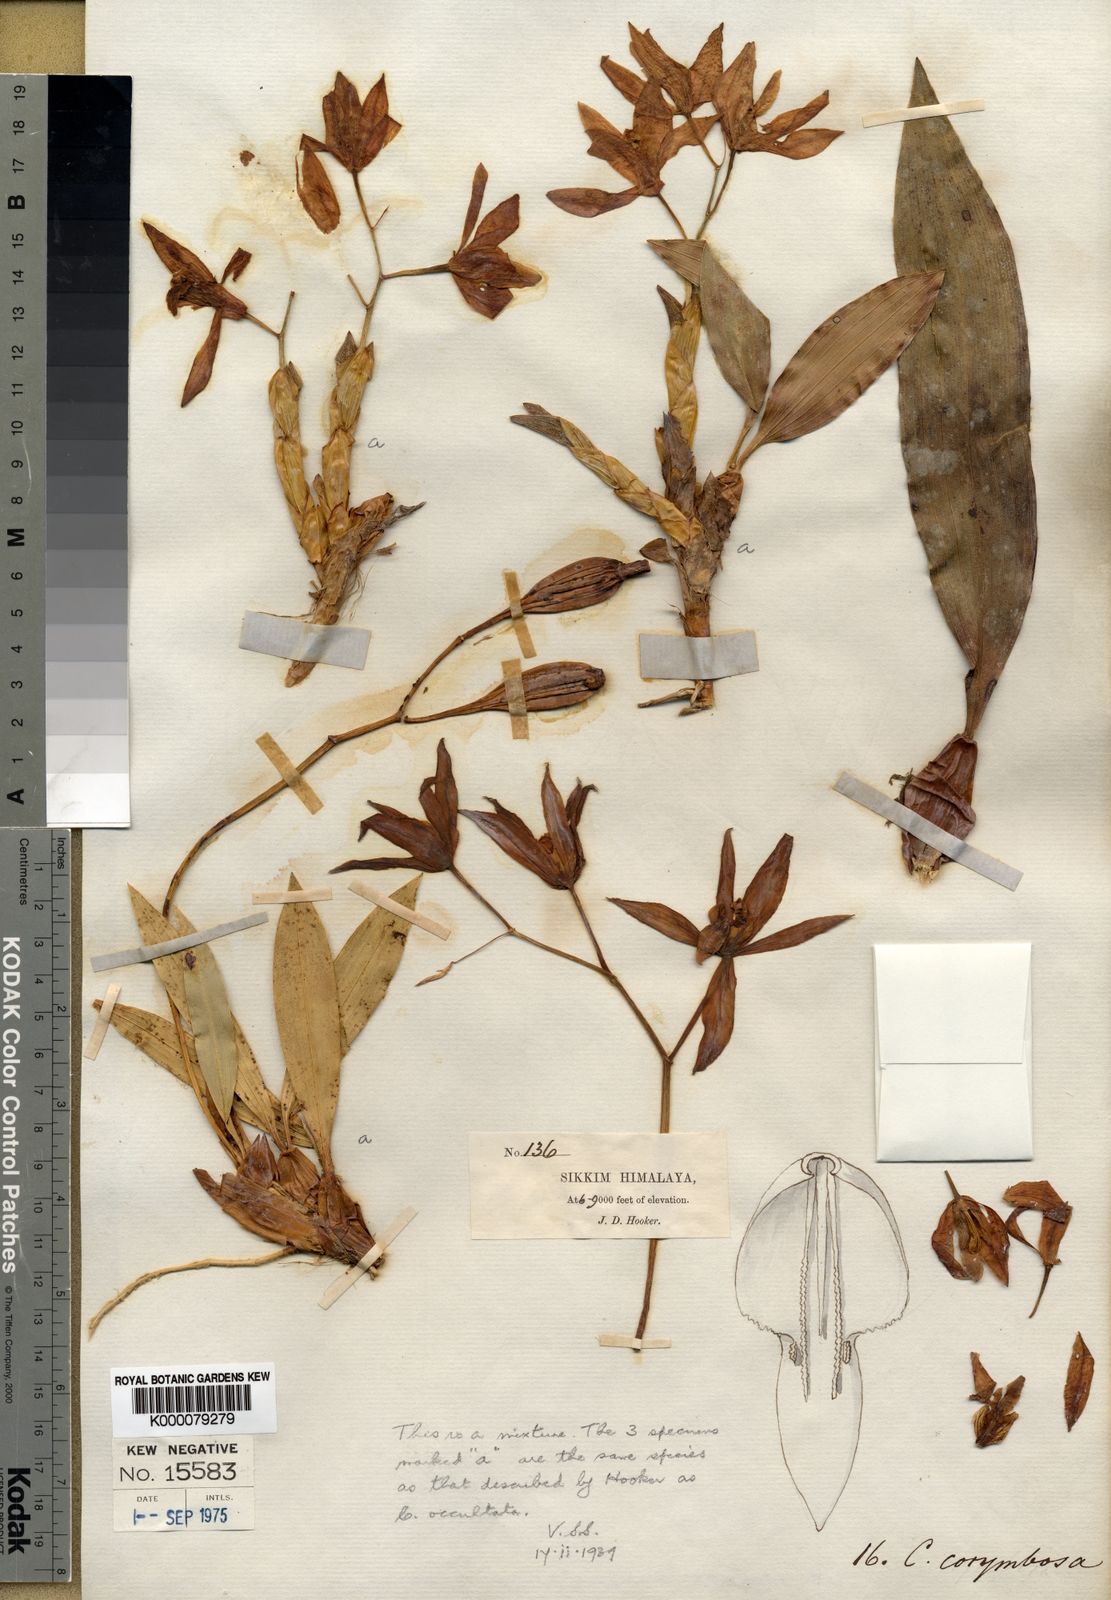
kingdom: Plantae
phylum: Tracheophyta
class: Liliopsida
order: Asparagales
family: Orchidaceae
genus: Coelogyne
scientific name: Coelogyne corymbosa
